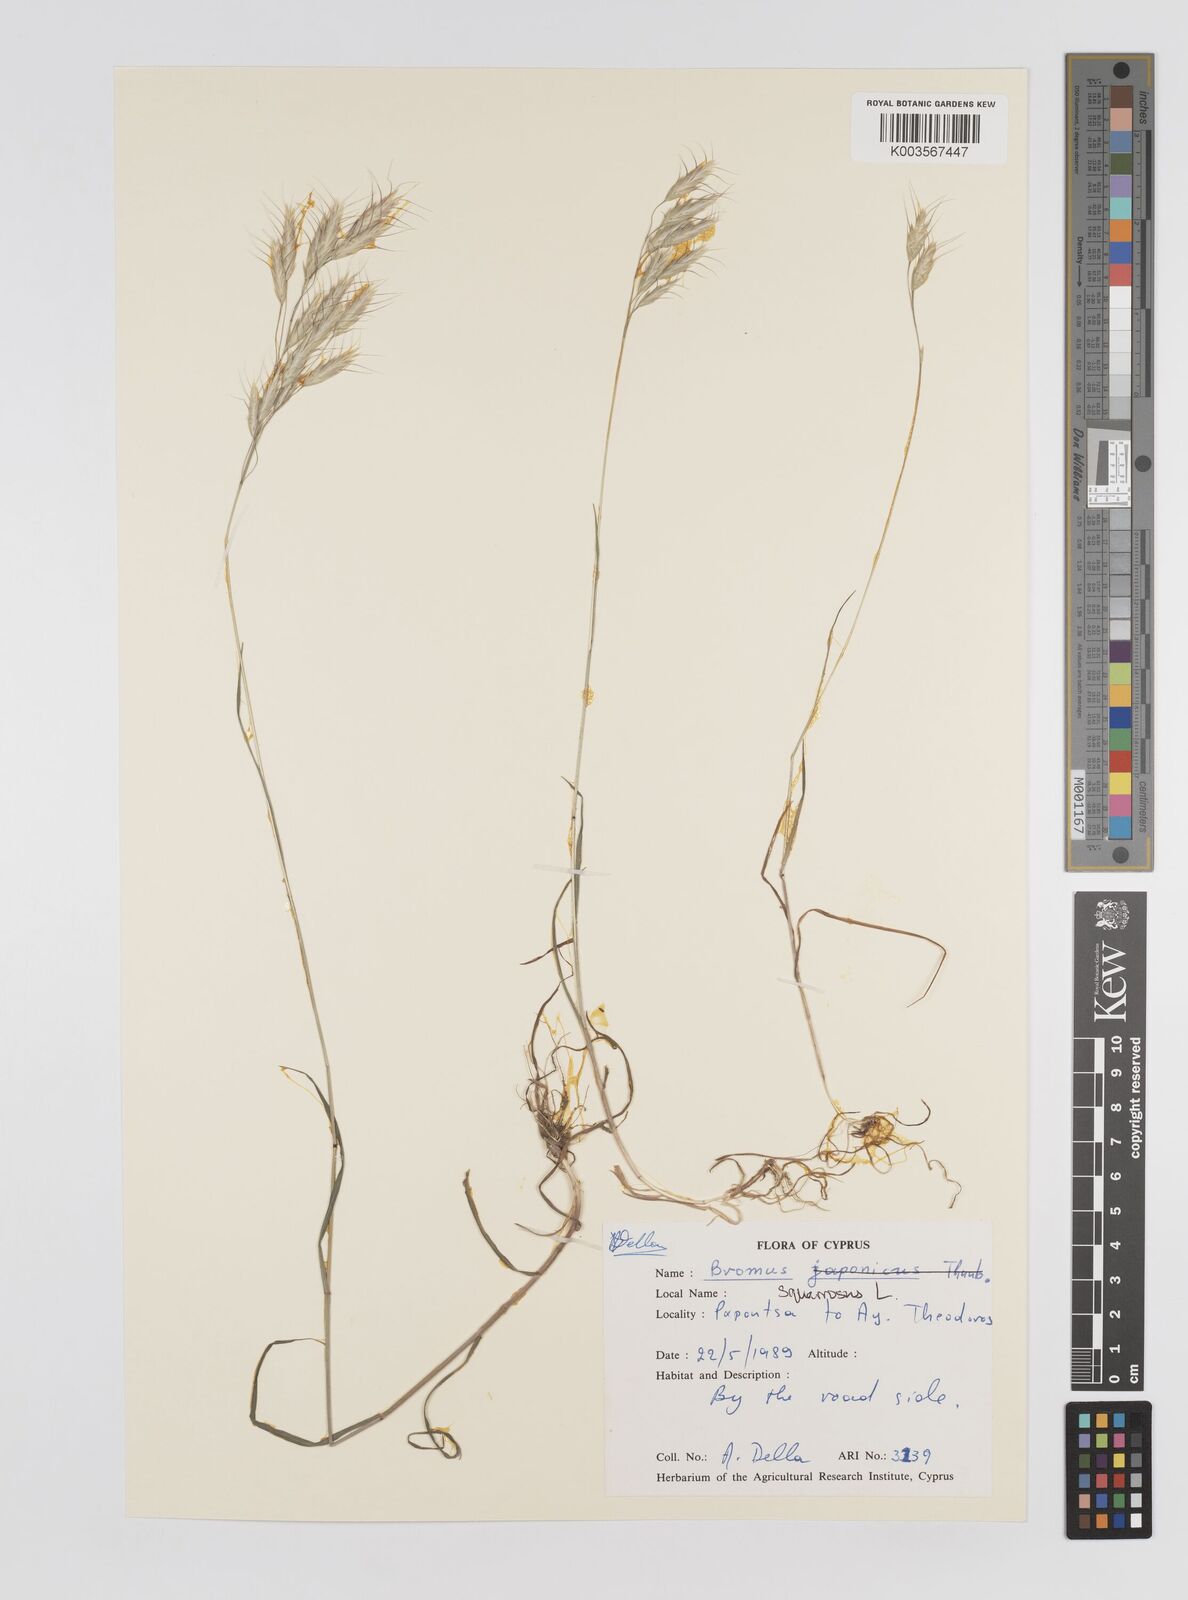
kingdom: Plantae
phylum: Tracheophyta
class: Liliopsida
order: Poales
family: Poaceae
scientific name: Poaceae
